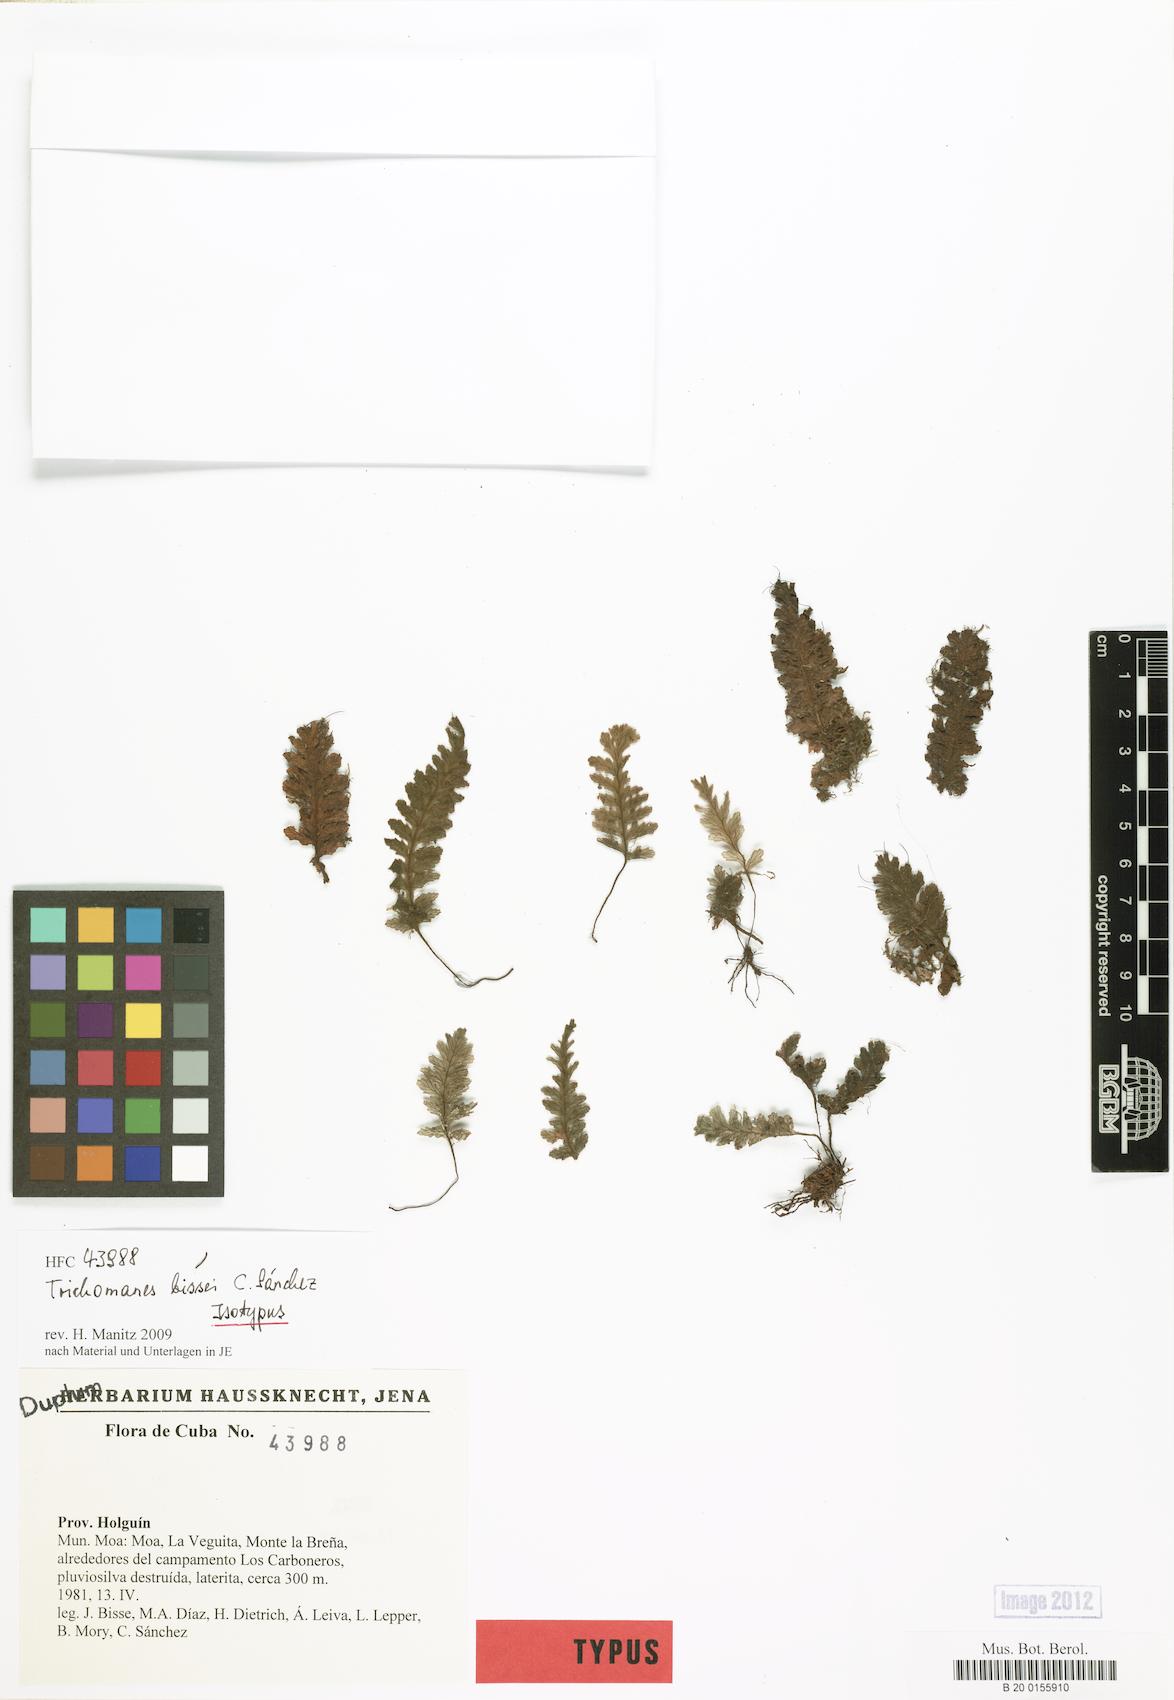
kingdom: Plantae
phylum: Tracheophyta
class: Polypodiopsida
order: Hymenophyllales
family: Hymenophyllaceae
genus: Trichomanes
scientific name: Trichomanes bissei
